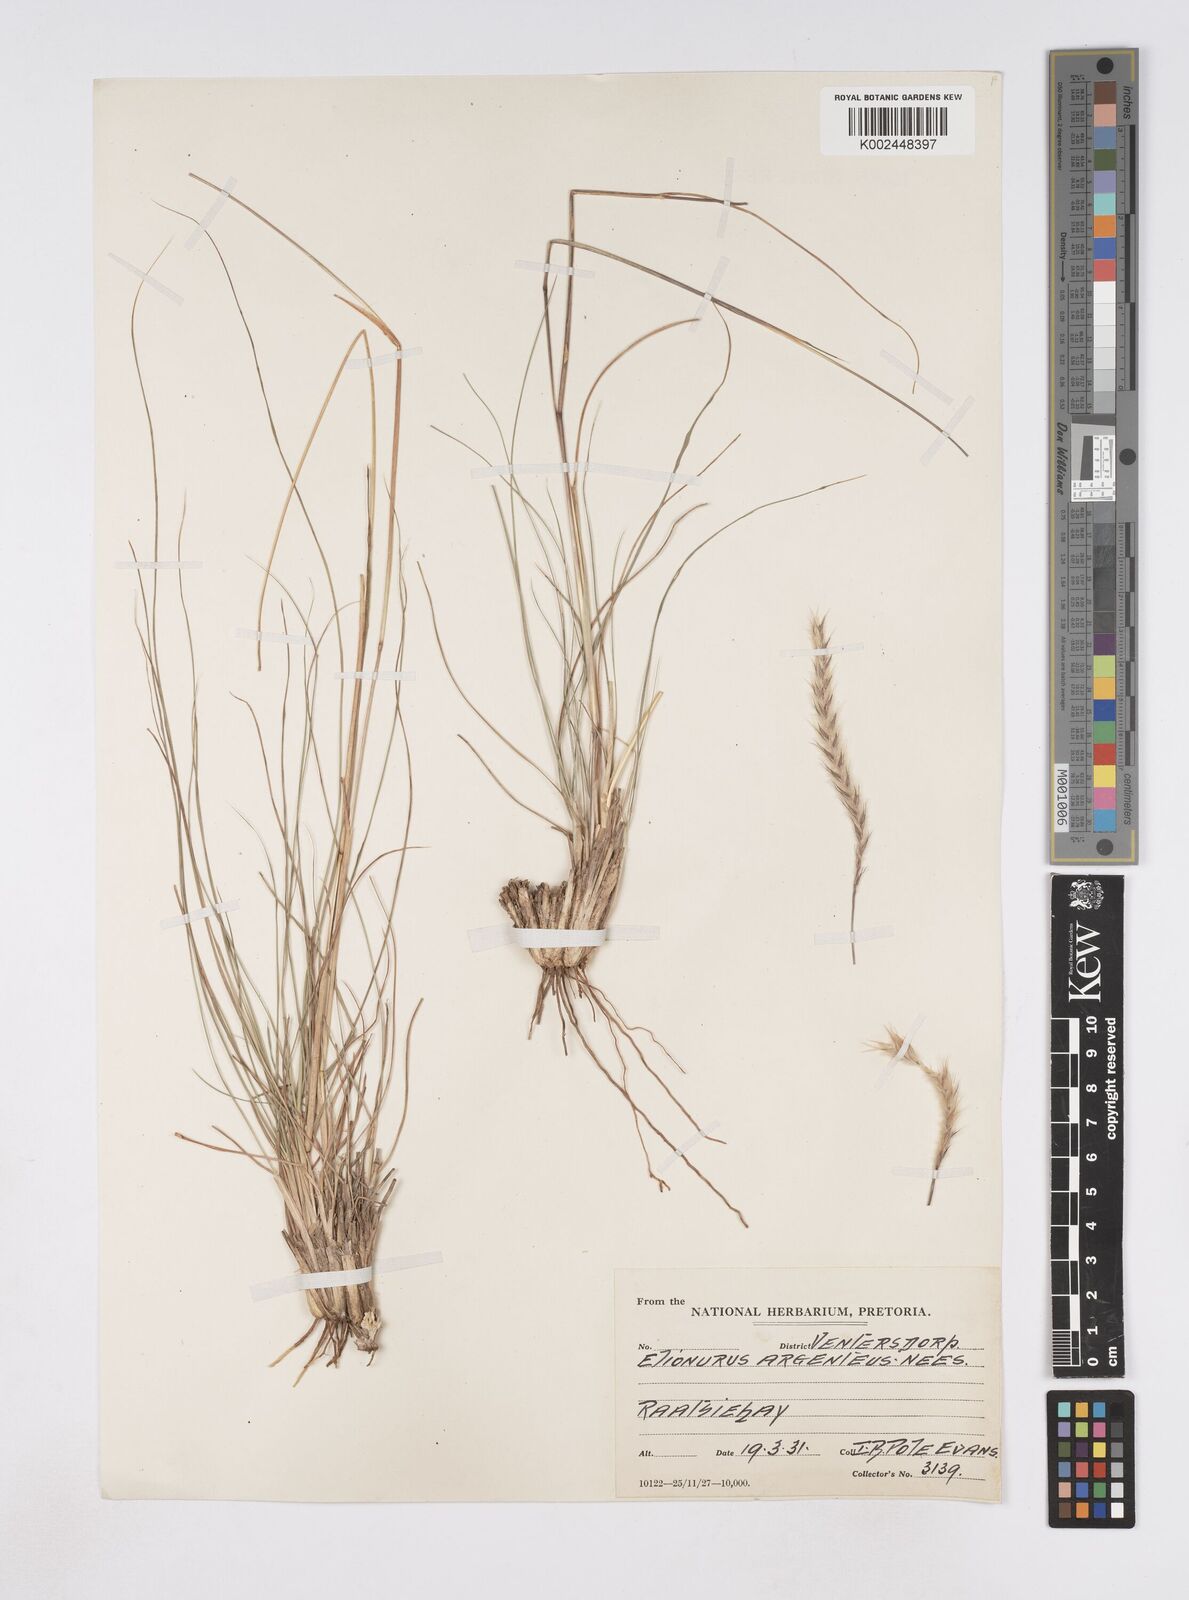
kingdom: Plantae
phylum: Tracheophyta
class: Liliopsida
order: Poales
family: Poaceae
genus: Elionurus
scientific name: Elionurus muticus
